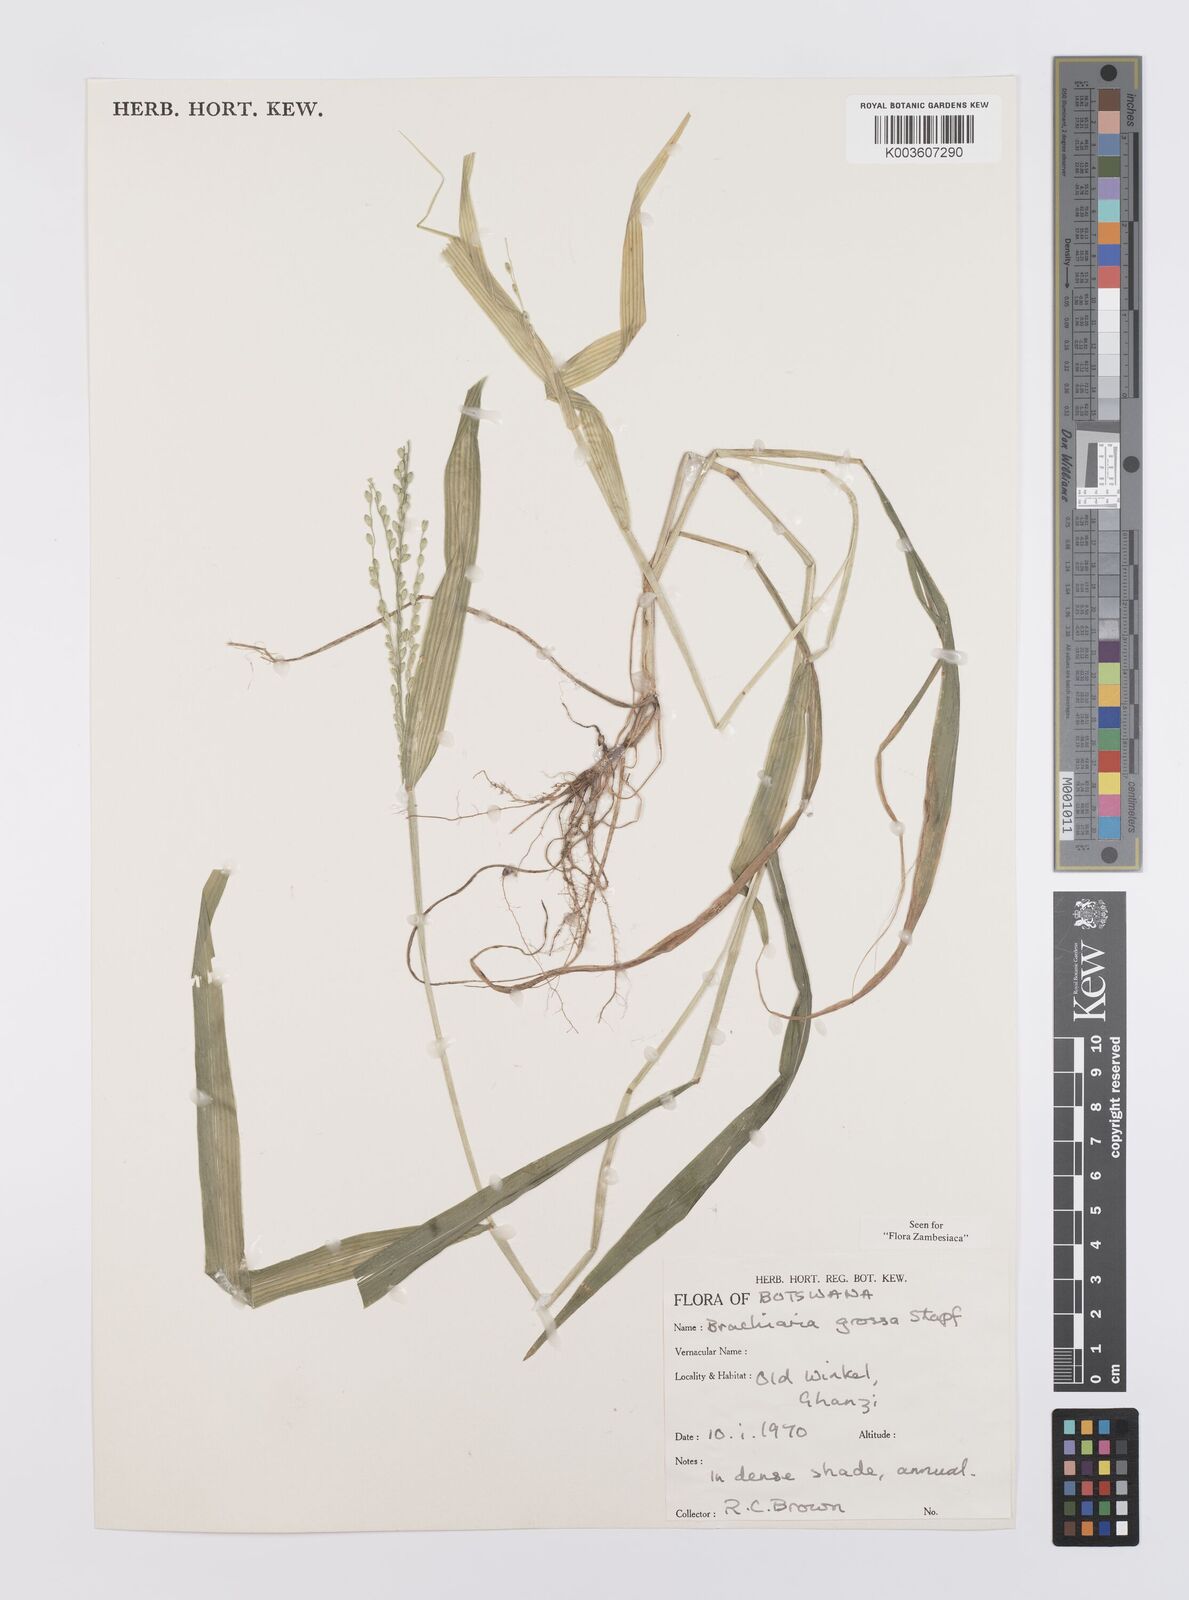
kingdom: Plantae
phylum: Tracheophyta
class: Liliopsida
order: Poales
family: Poaceae
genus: Urochloa
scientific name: Urochloa Brachiaria grossa
